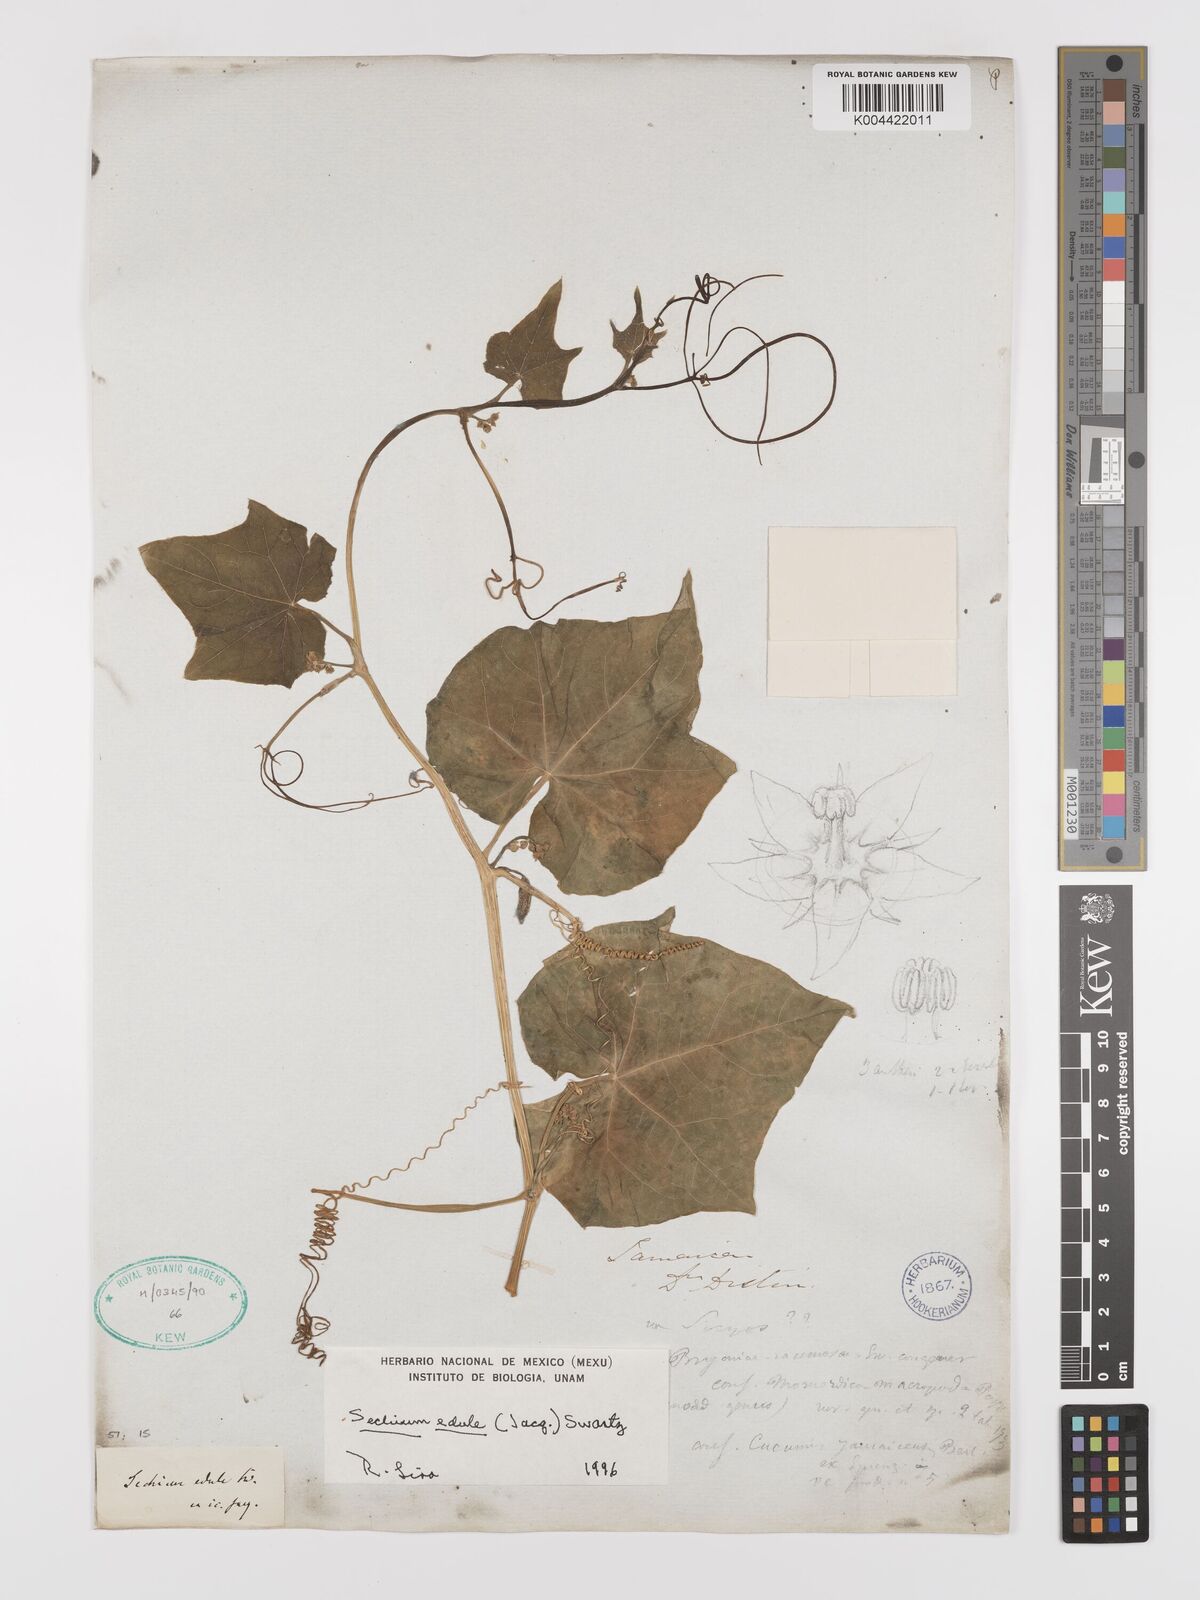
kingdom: Plantae
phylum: Tracheophyta
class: Magnoliopsida
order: Cucurbitales
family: Cucurbitaceae
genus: Sechium
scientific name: Sechium edule
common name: Chayote
